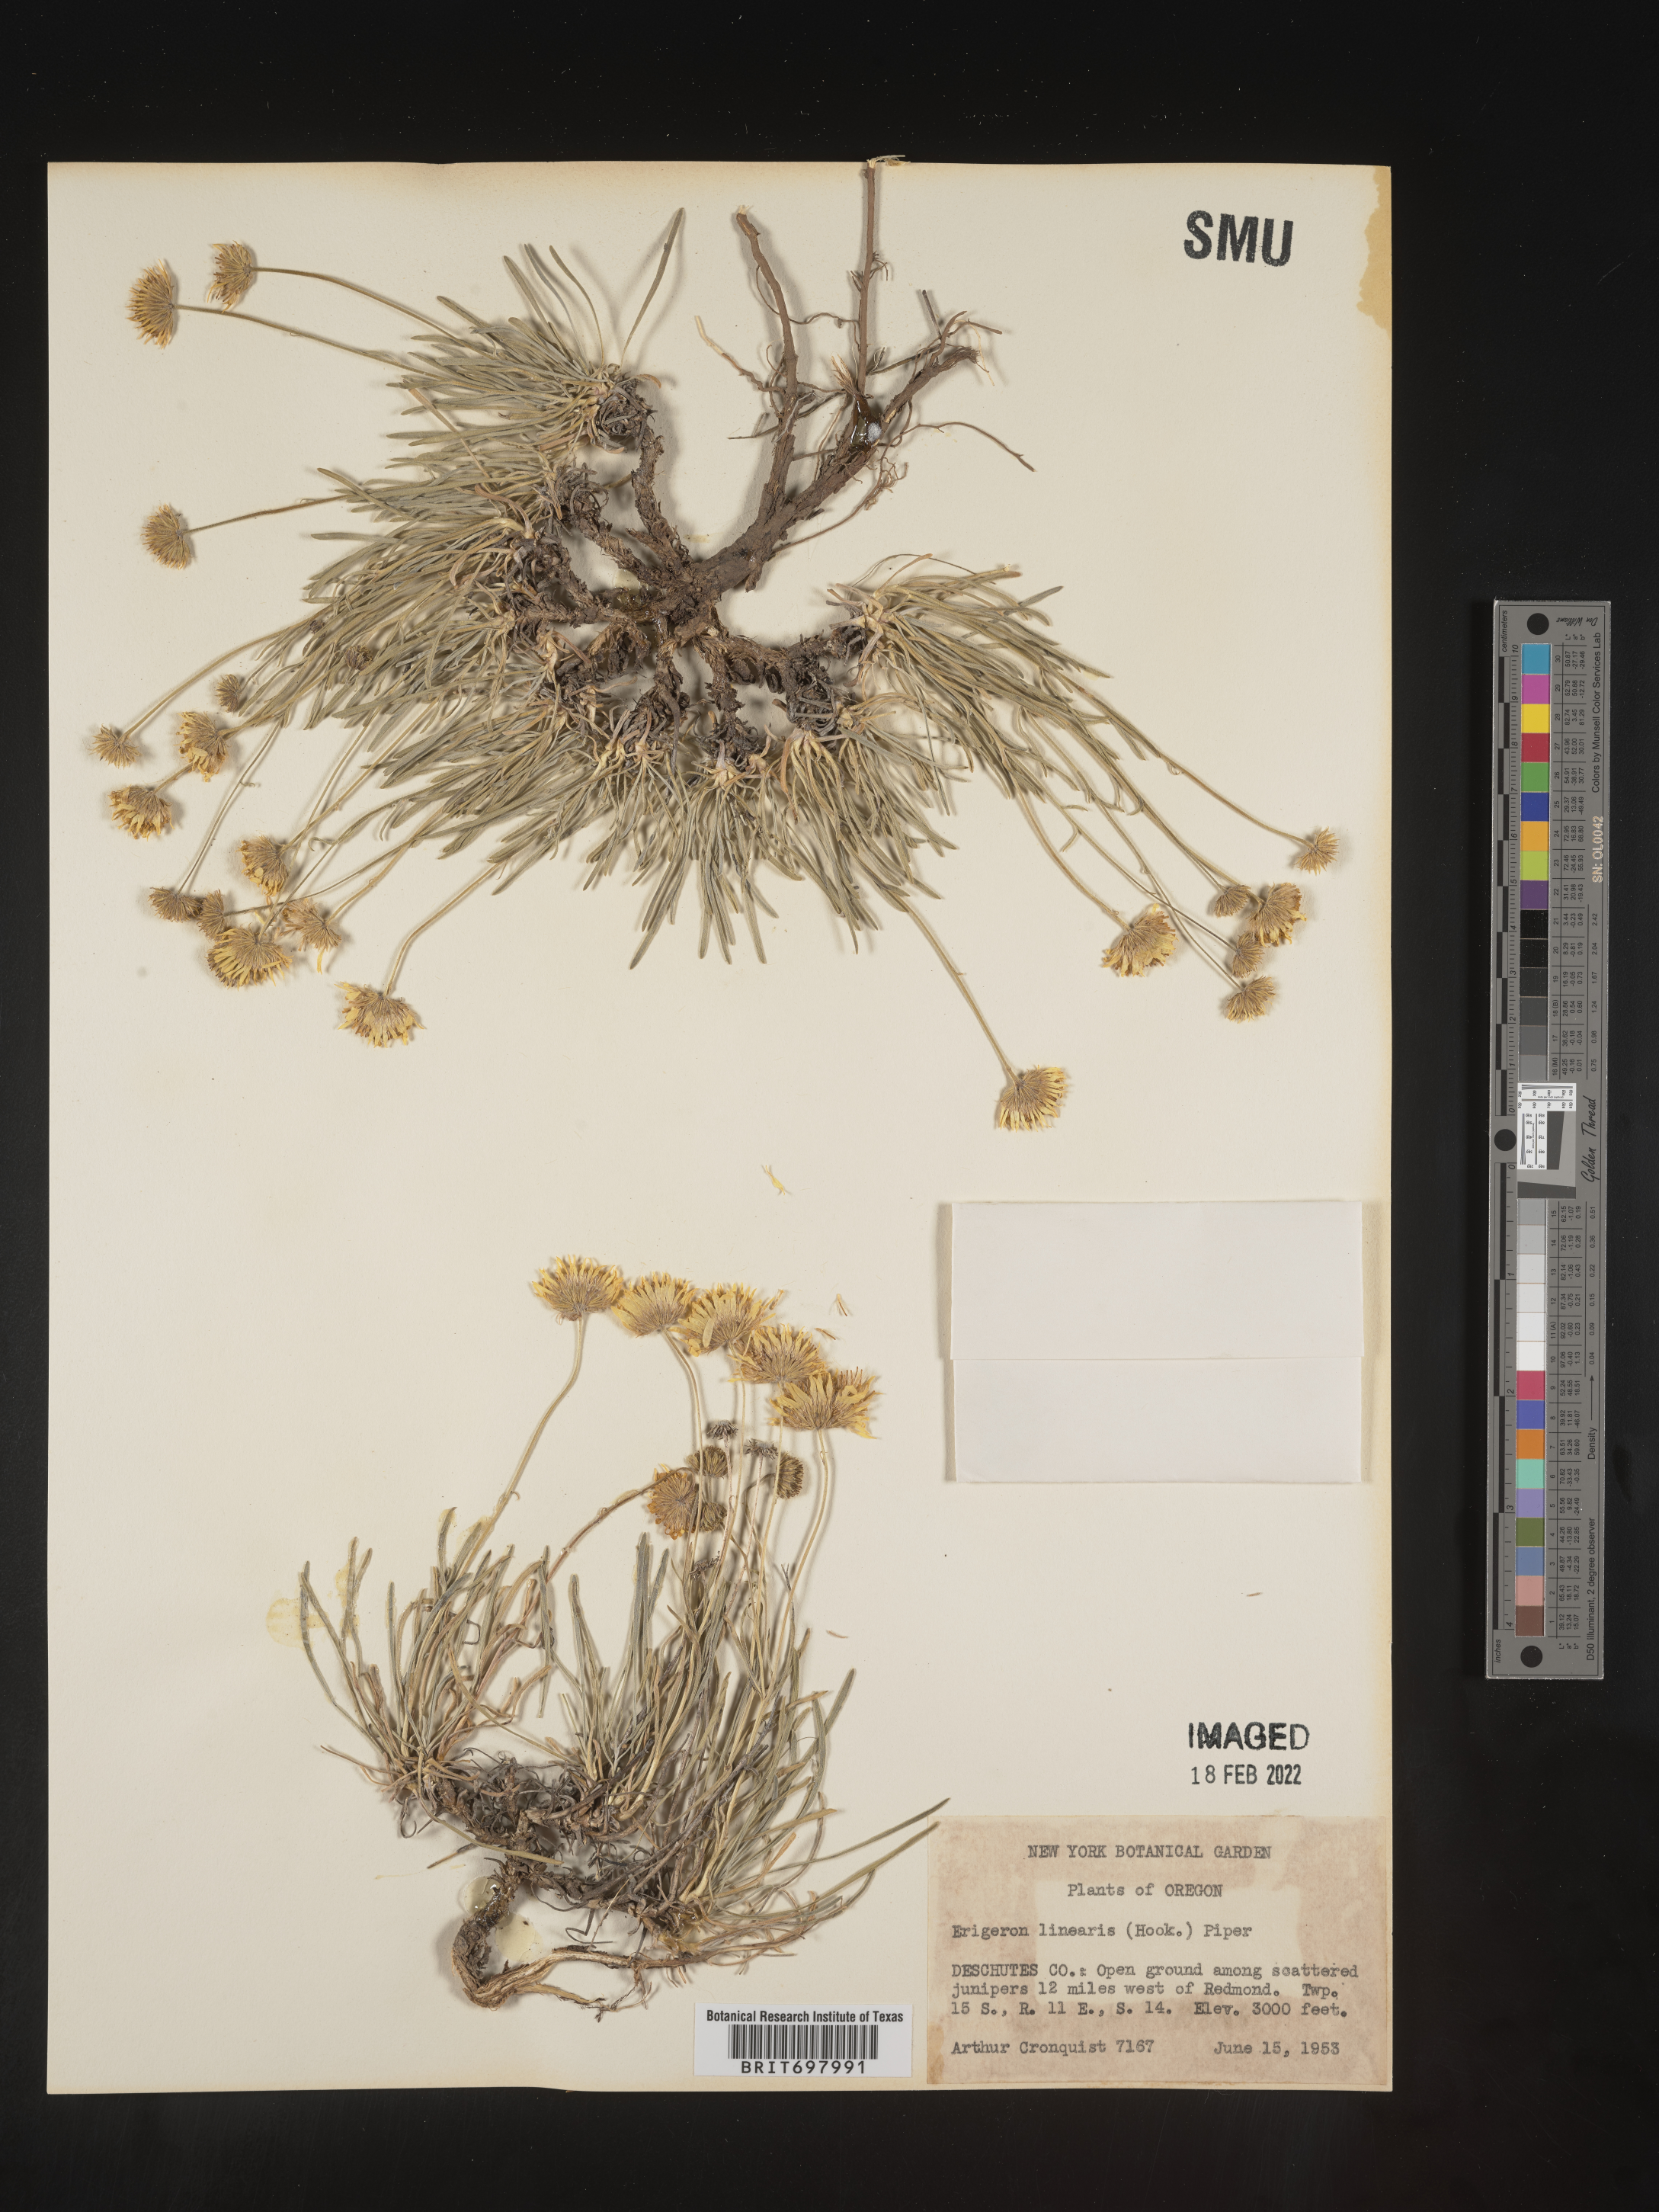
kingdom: Plantae
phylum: Tracheophyta
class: Magnoliopsida
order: Asterales
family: Asteraceae
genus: Erigeron
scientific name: Erigeron linearis
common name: Desert yellow fleabane
